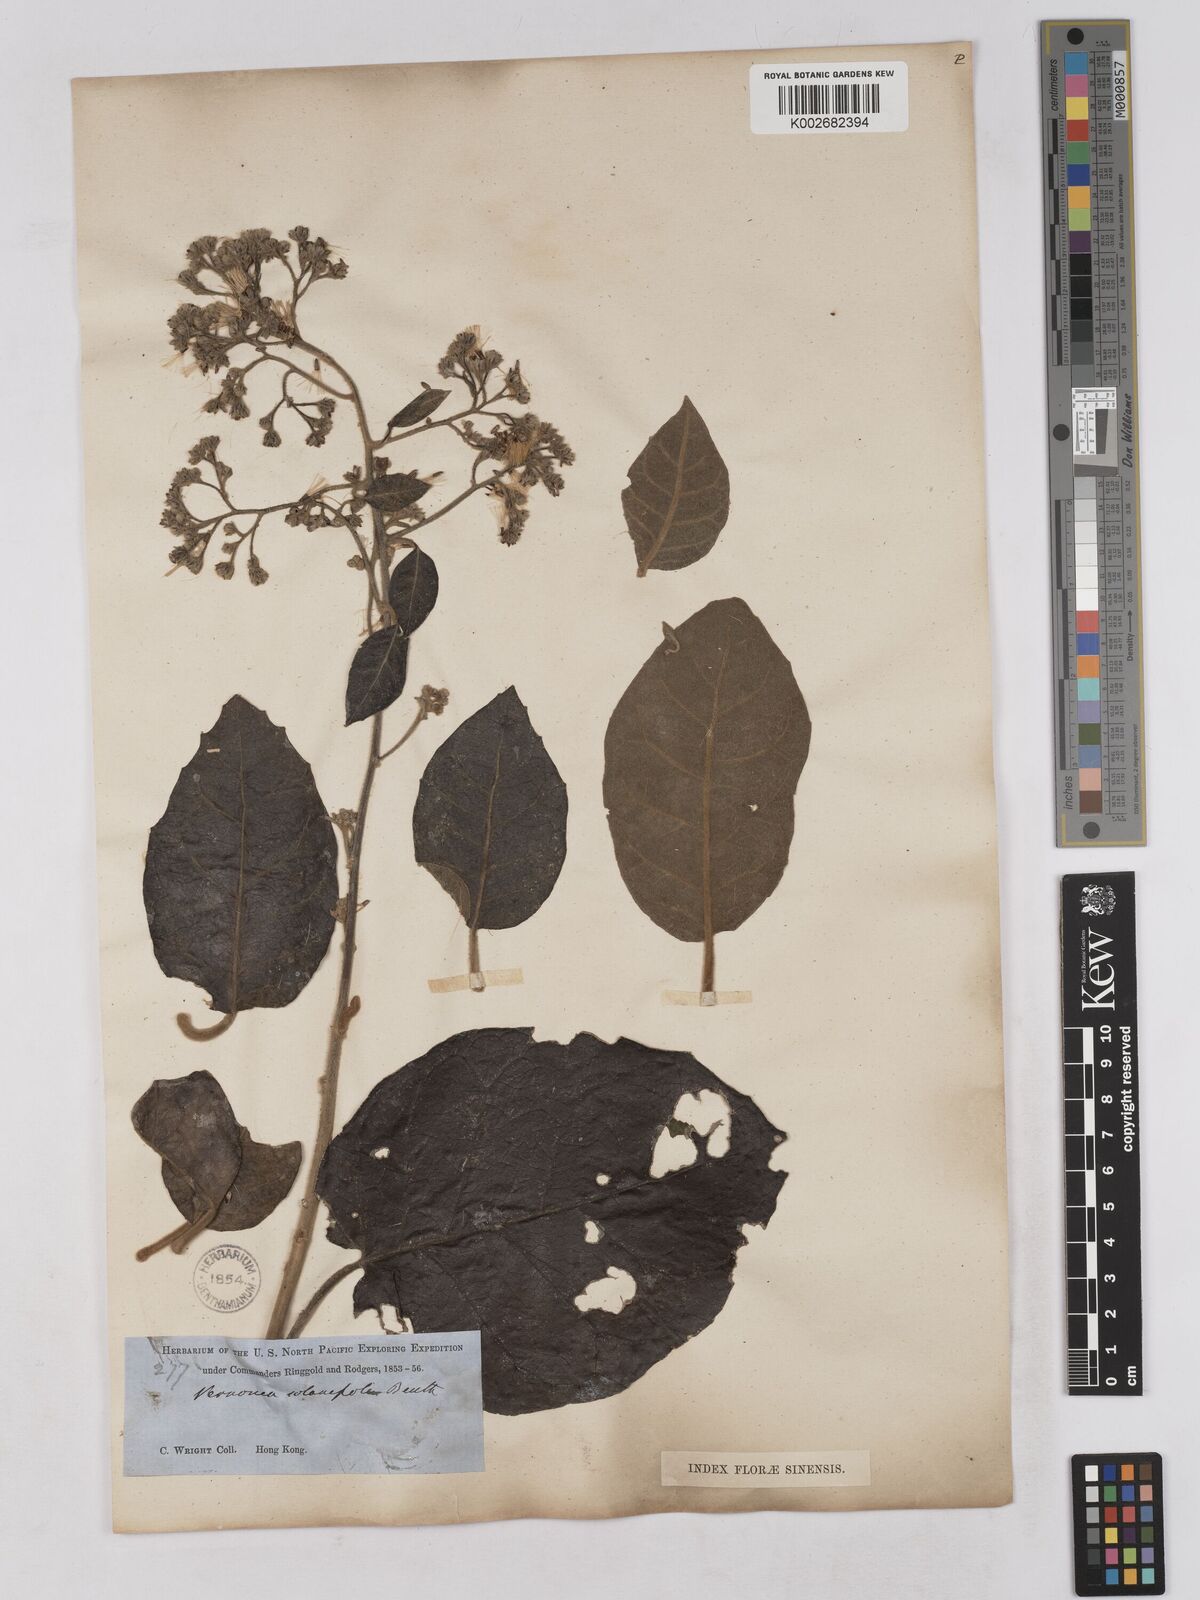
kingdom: Plantae
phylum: Tracheophyta
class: Magnoliopsida
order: Asterales
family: Asteraceae
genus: Strobocalyx
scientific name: Strobocalyx solanifolia
